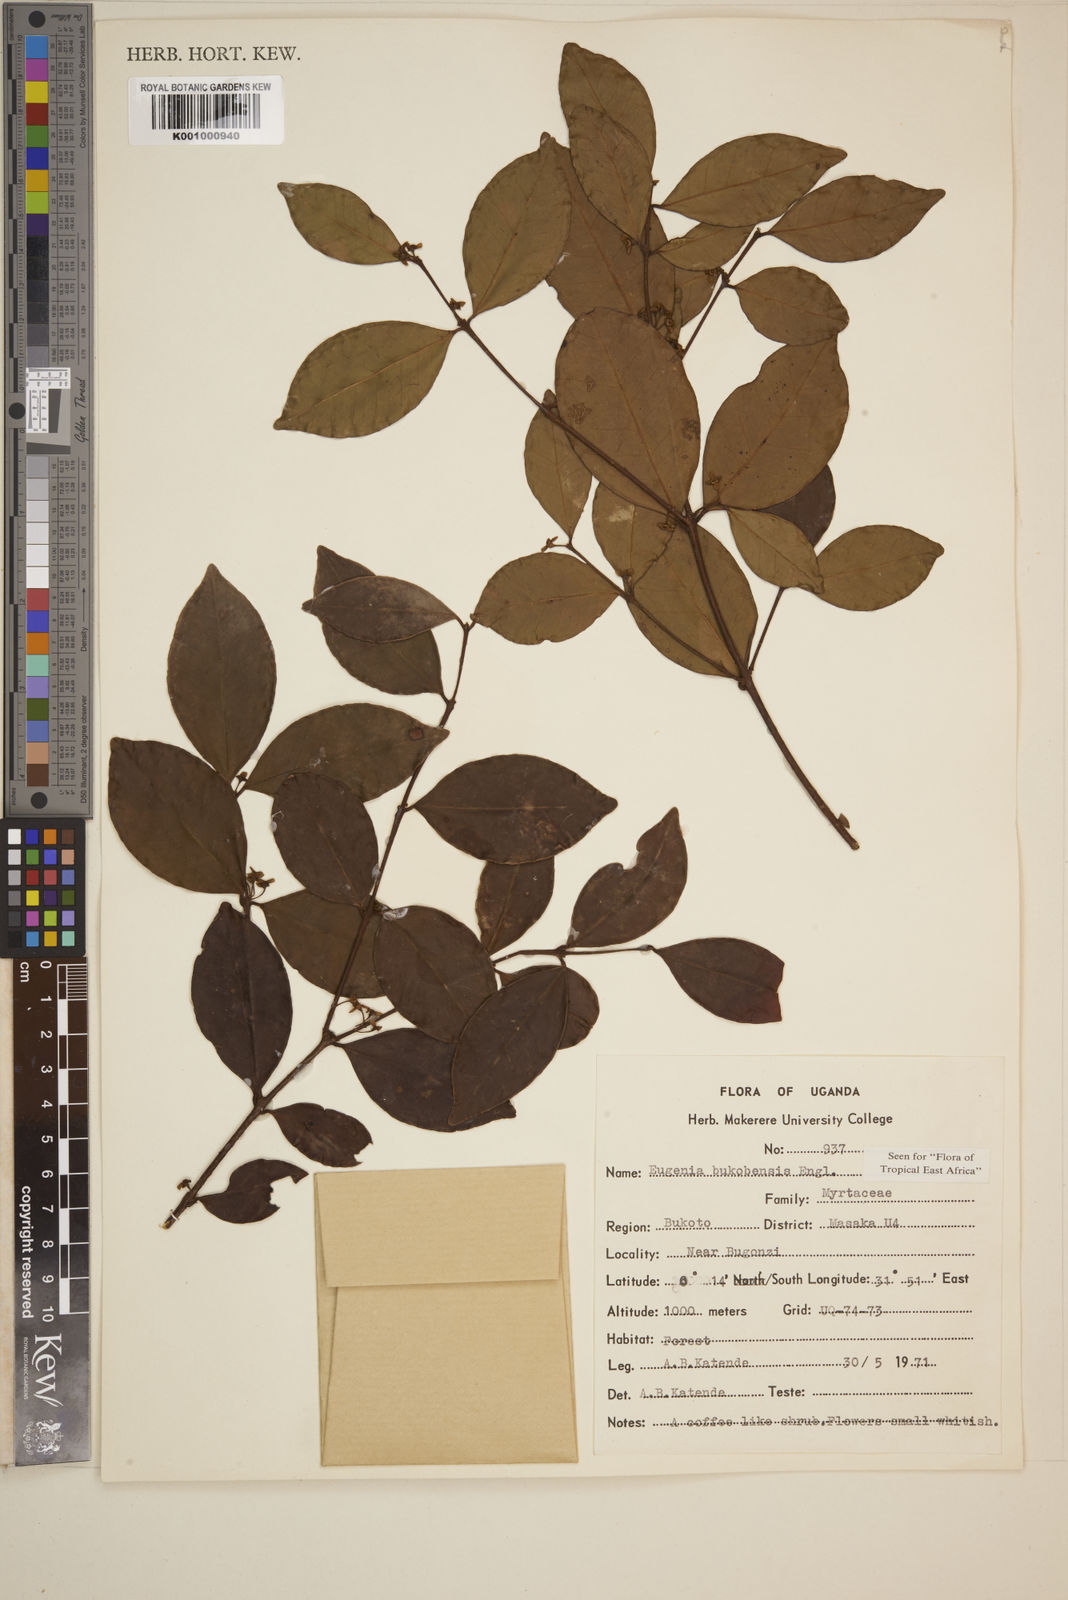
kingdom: Plantae
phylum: Tracheophyta
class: Magnoliopsida
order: Myrtales
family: Myrtaceae
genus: Eugenia
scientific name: Eugenia bukobensis
